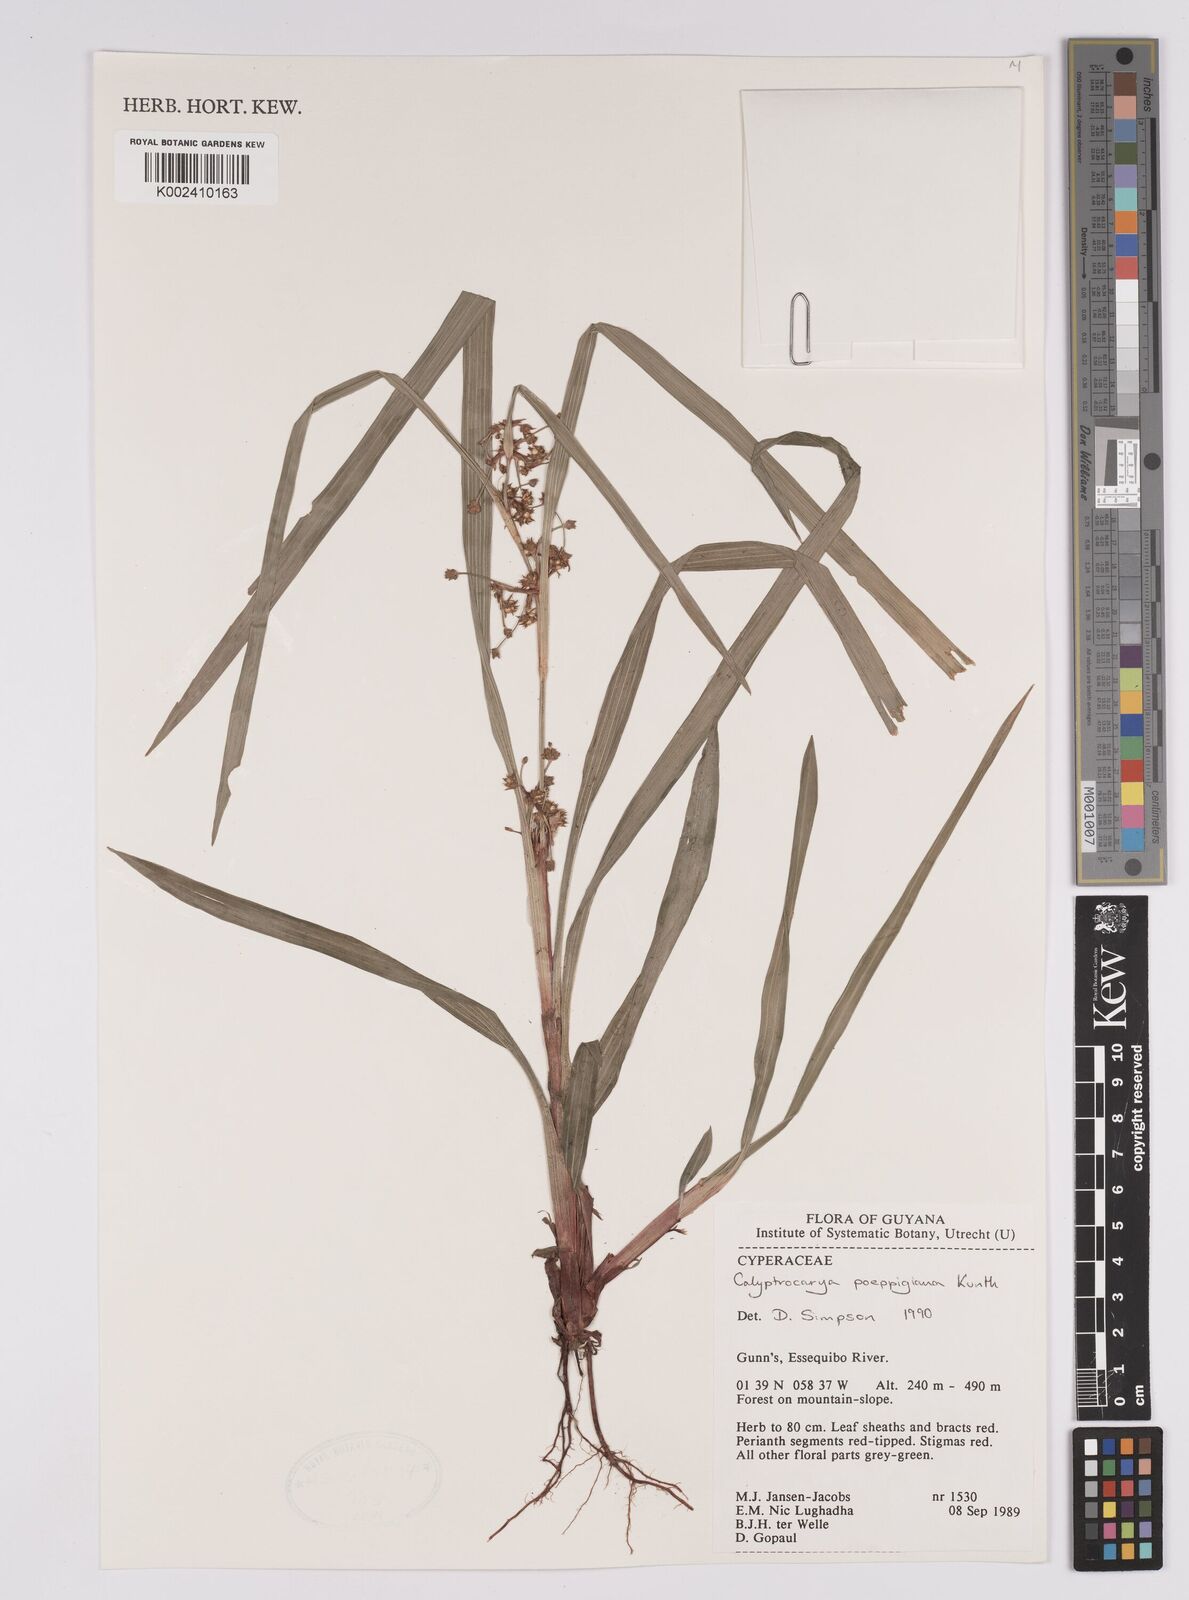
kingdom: Plantae
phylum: Tracheophyta
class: Liliopsida
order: Poales
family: Cyperaceae
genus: Calyptrocarya
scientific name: Calyptrocarya poeppigiana
